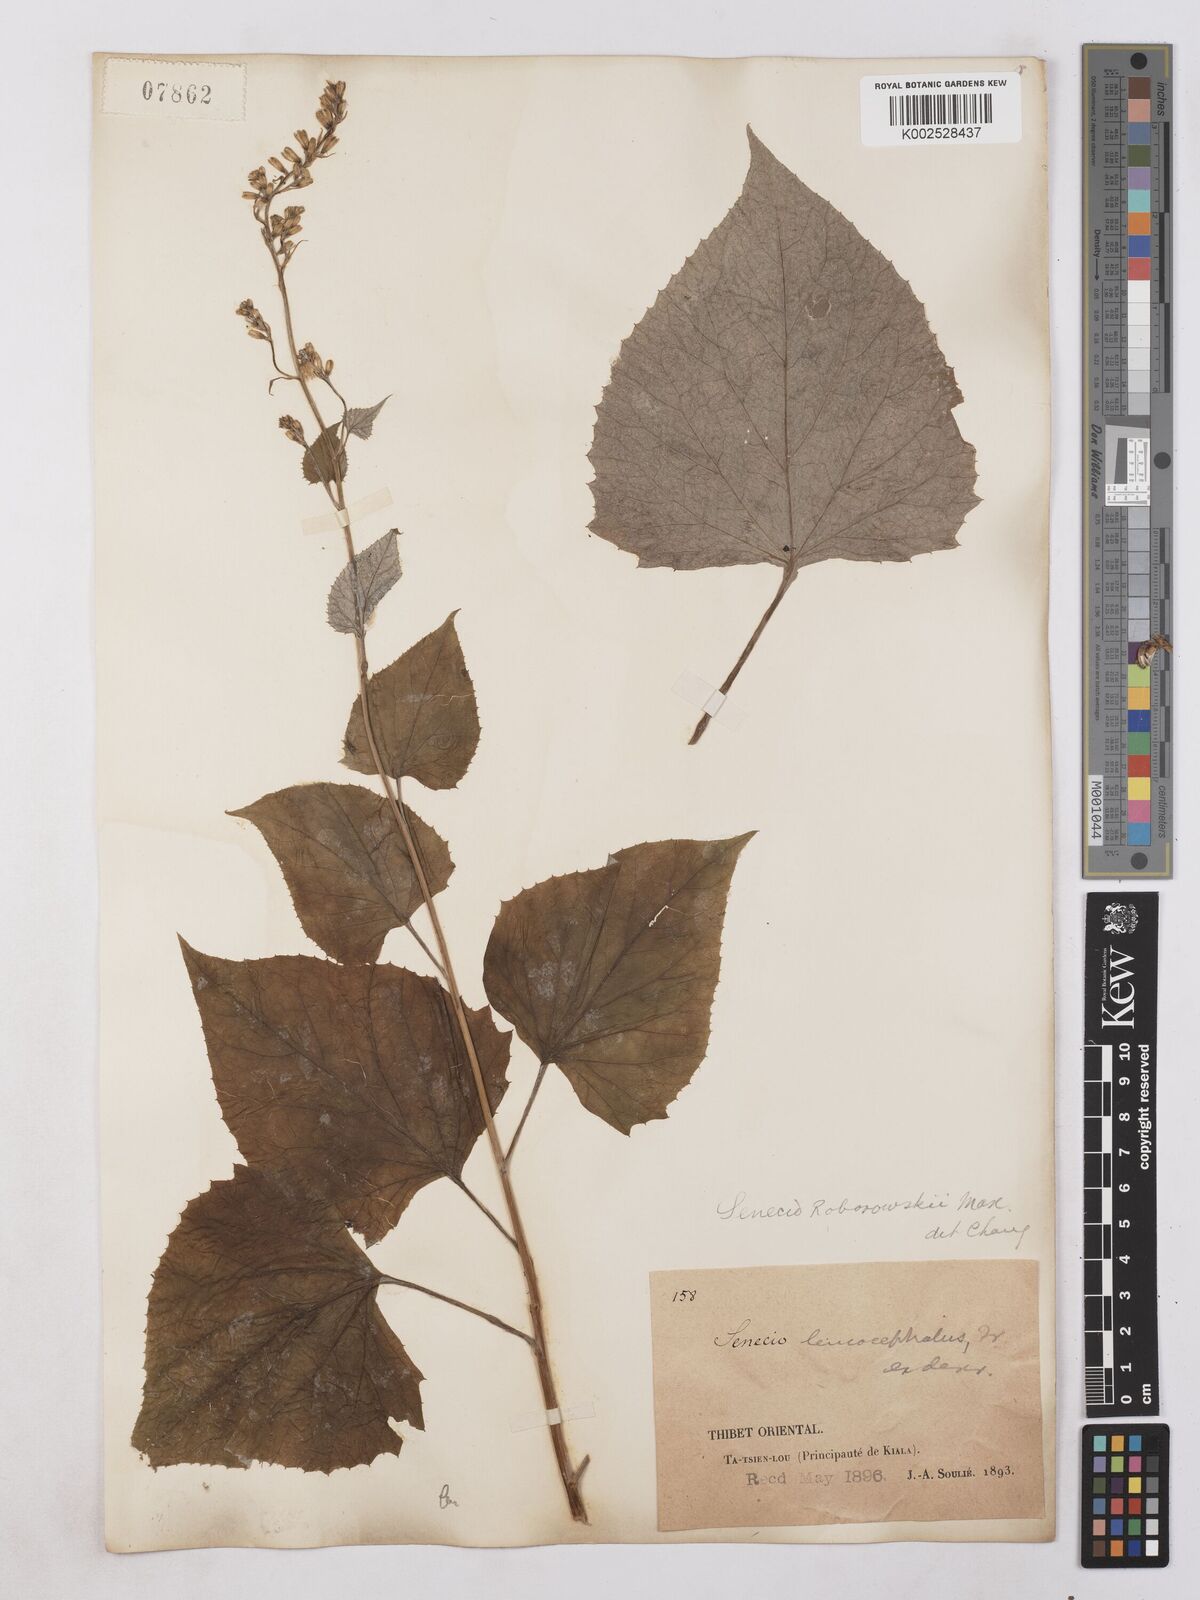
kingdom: Plantae
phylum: Tracheophyta
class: Magnoliopsida
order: Asterales
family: Asteraceae
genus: Parasenecio
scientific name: Parasenecio roborowskii
